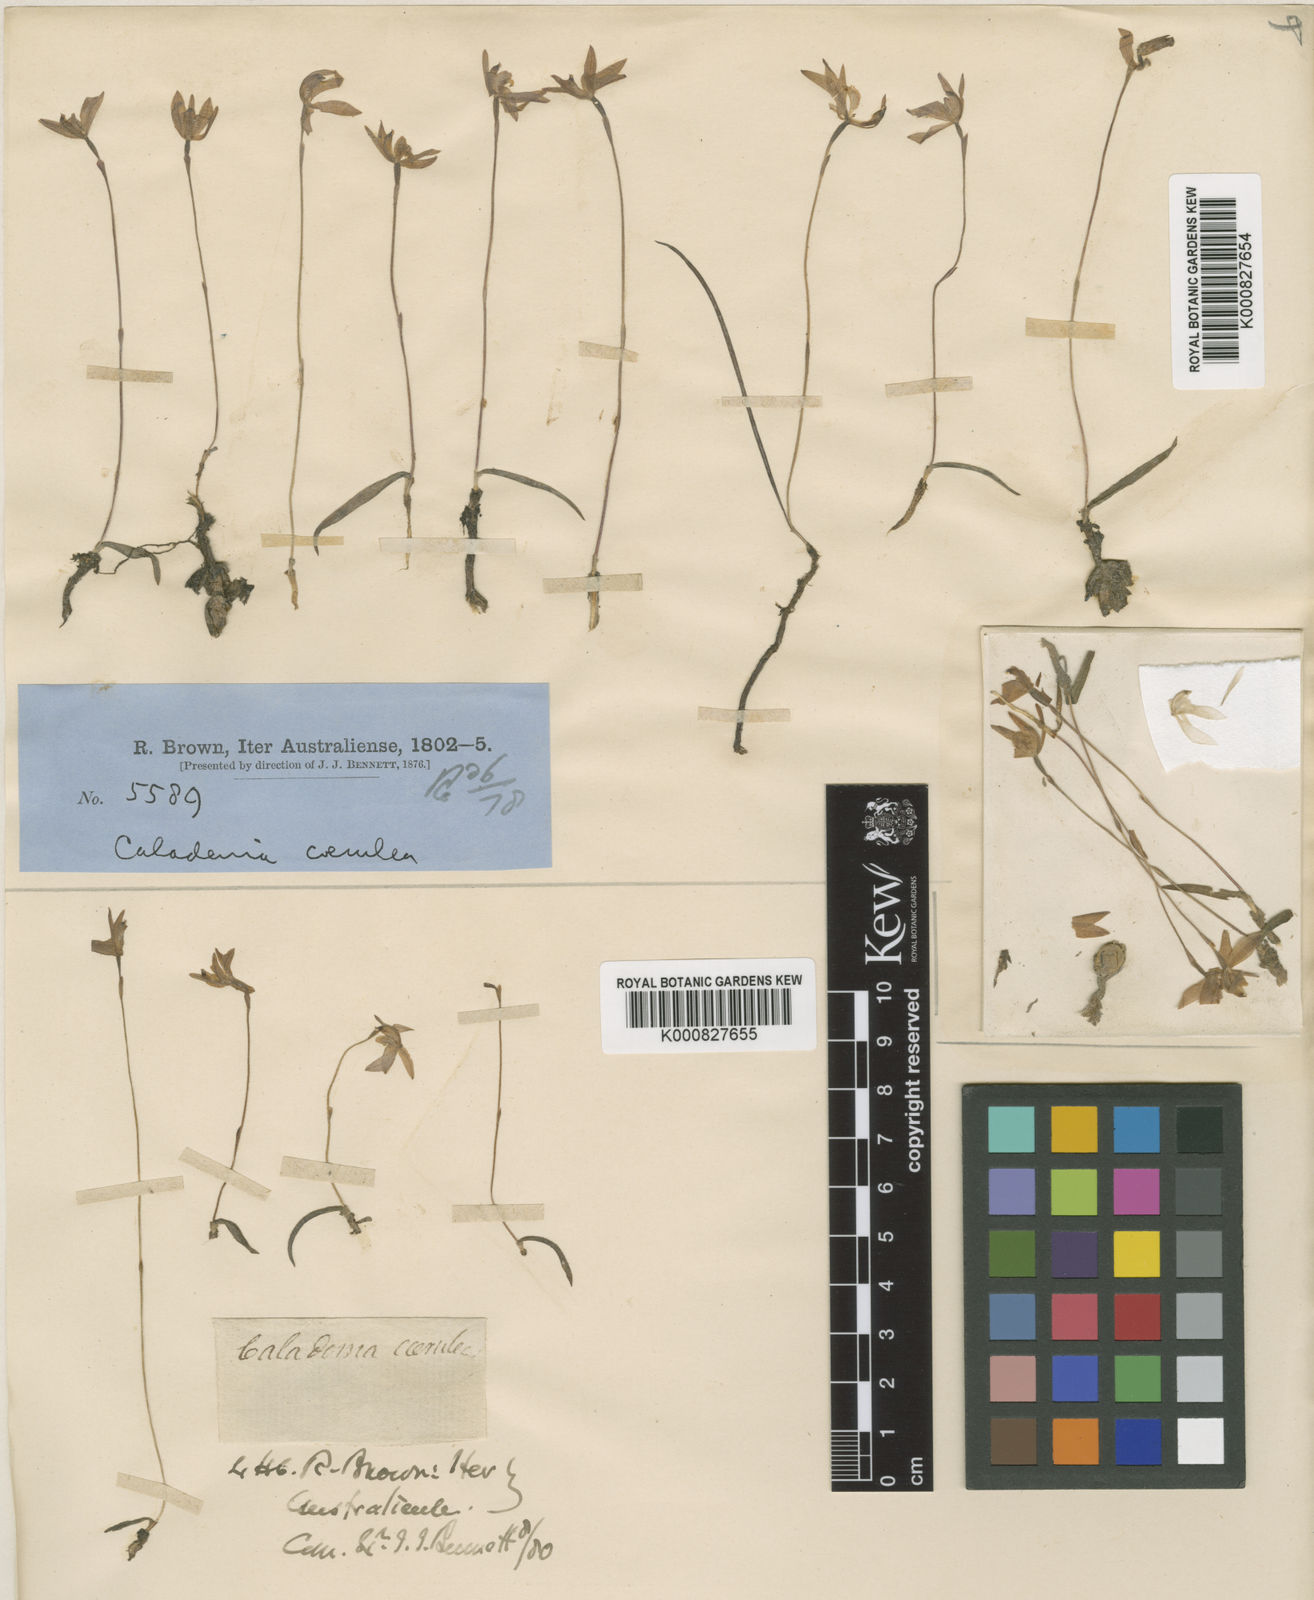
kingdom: Plantae
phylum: Tracheophyta
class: Liliopsida
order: Asparagales
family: Orchidaceae
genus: Caladenia
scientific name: Caladenia caerulea
